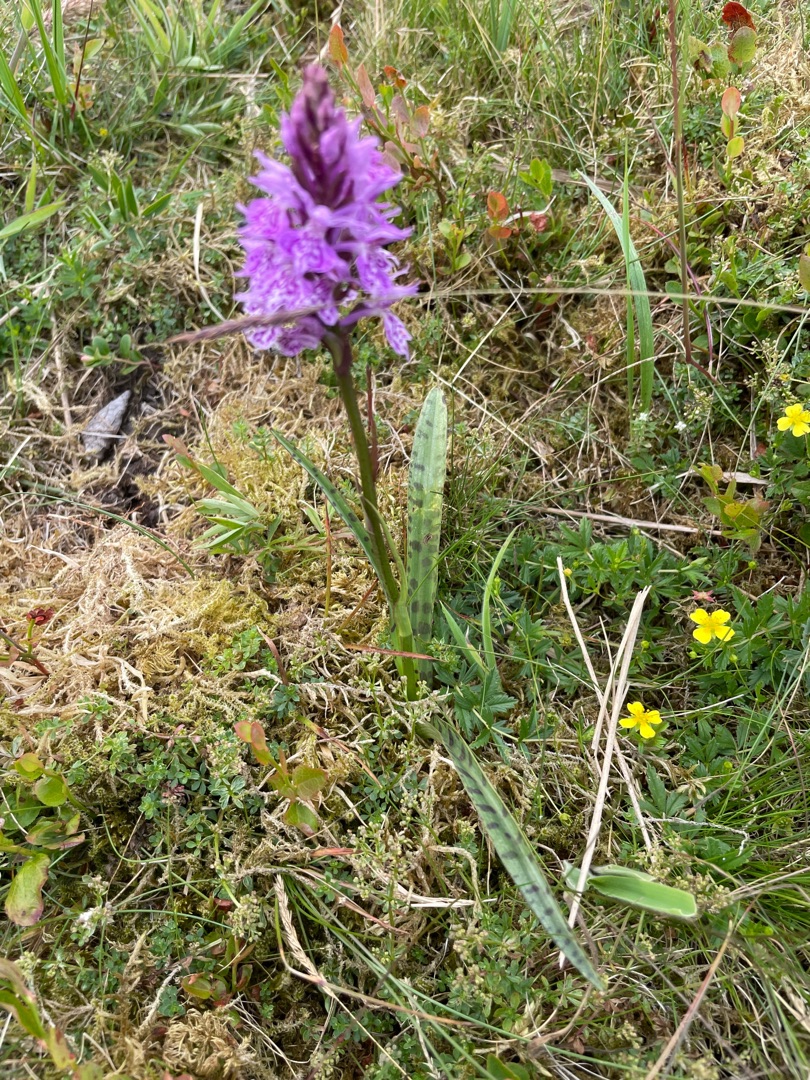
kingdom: Plantae
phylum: Tracheophyta
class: Liliopsida
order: Asparagales
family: Orchidaceae
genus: Dactylorhiza
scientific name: Dactylorhiza maculata
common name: Plettet gøgeurt
